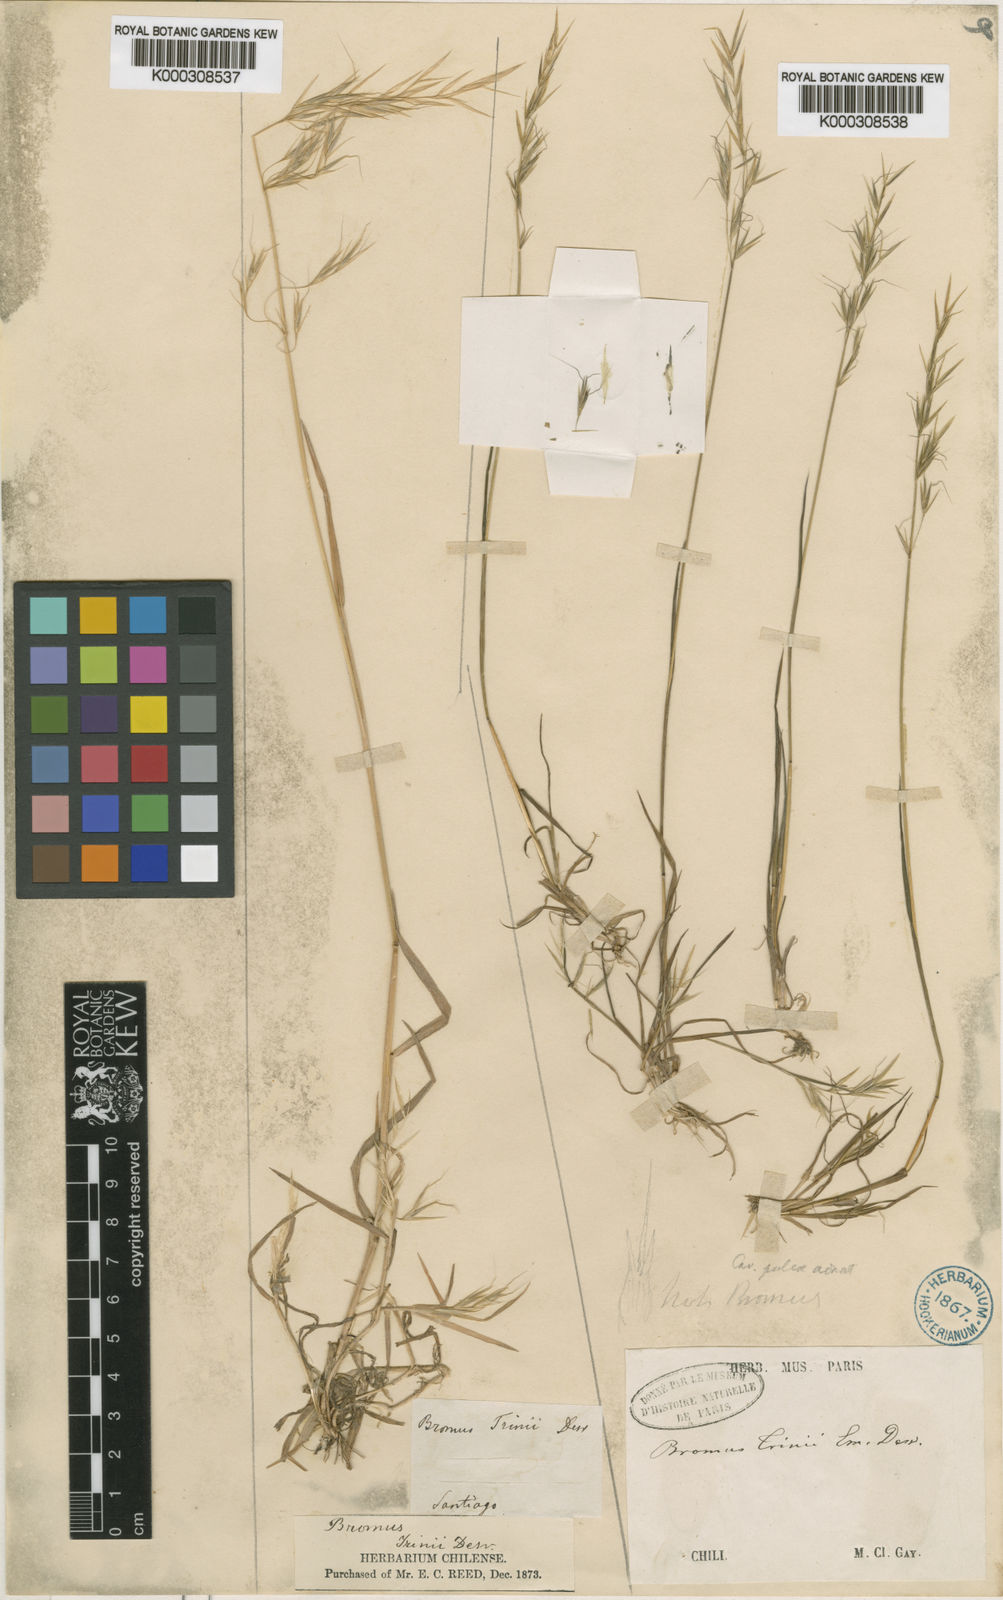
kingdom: Plantae
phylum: Tracheophyta
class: Liliopsida
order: Poales
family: Poaceae
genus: Bromus
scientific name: Bromus berteroanus
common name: Chilean chess
